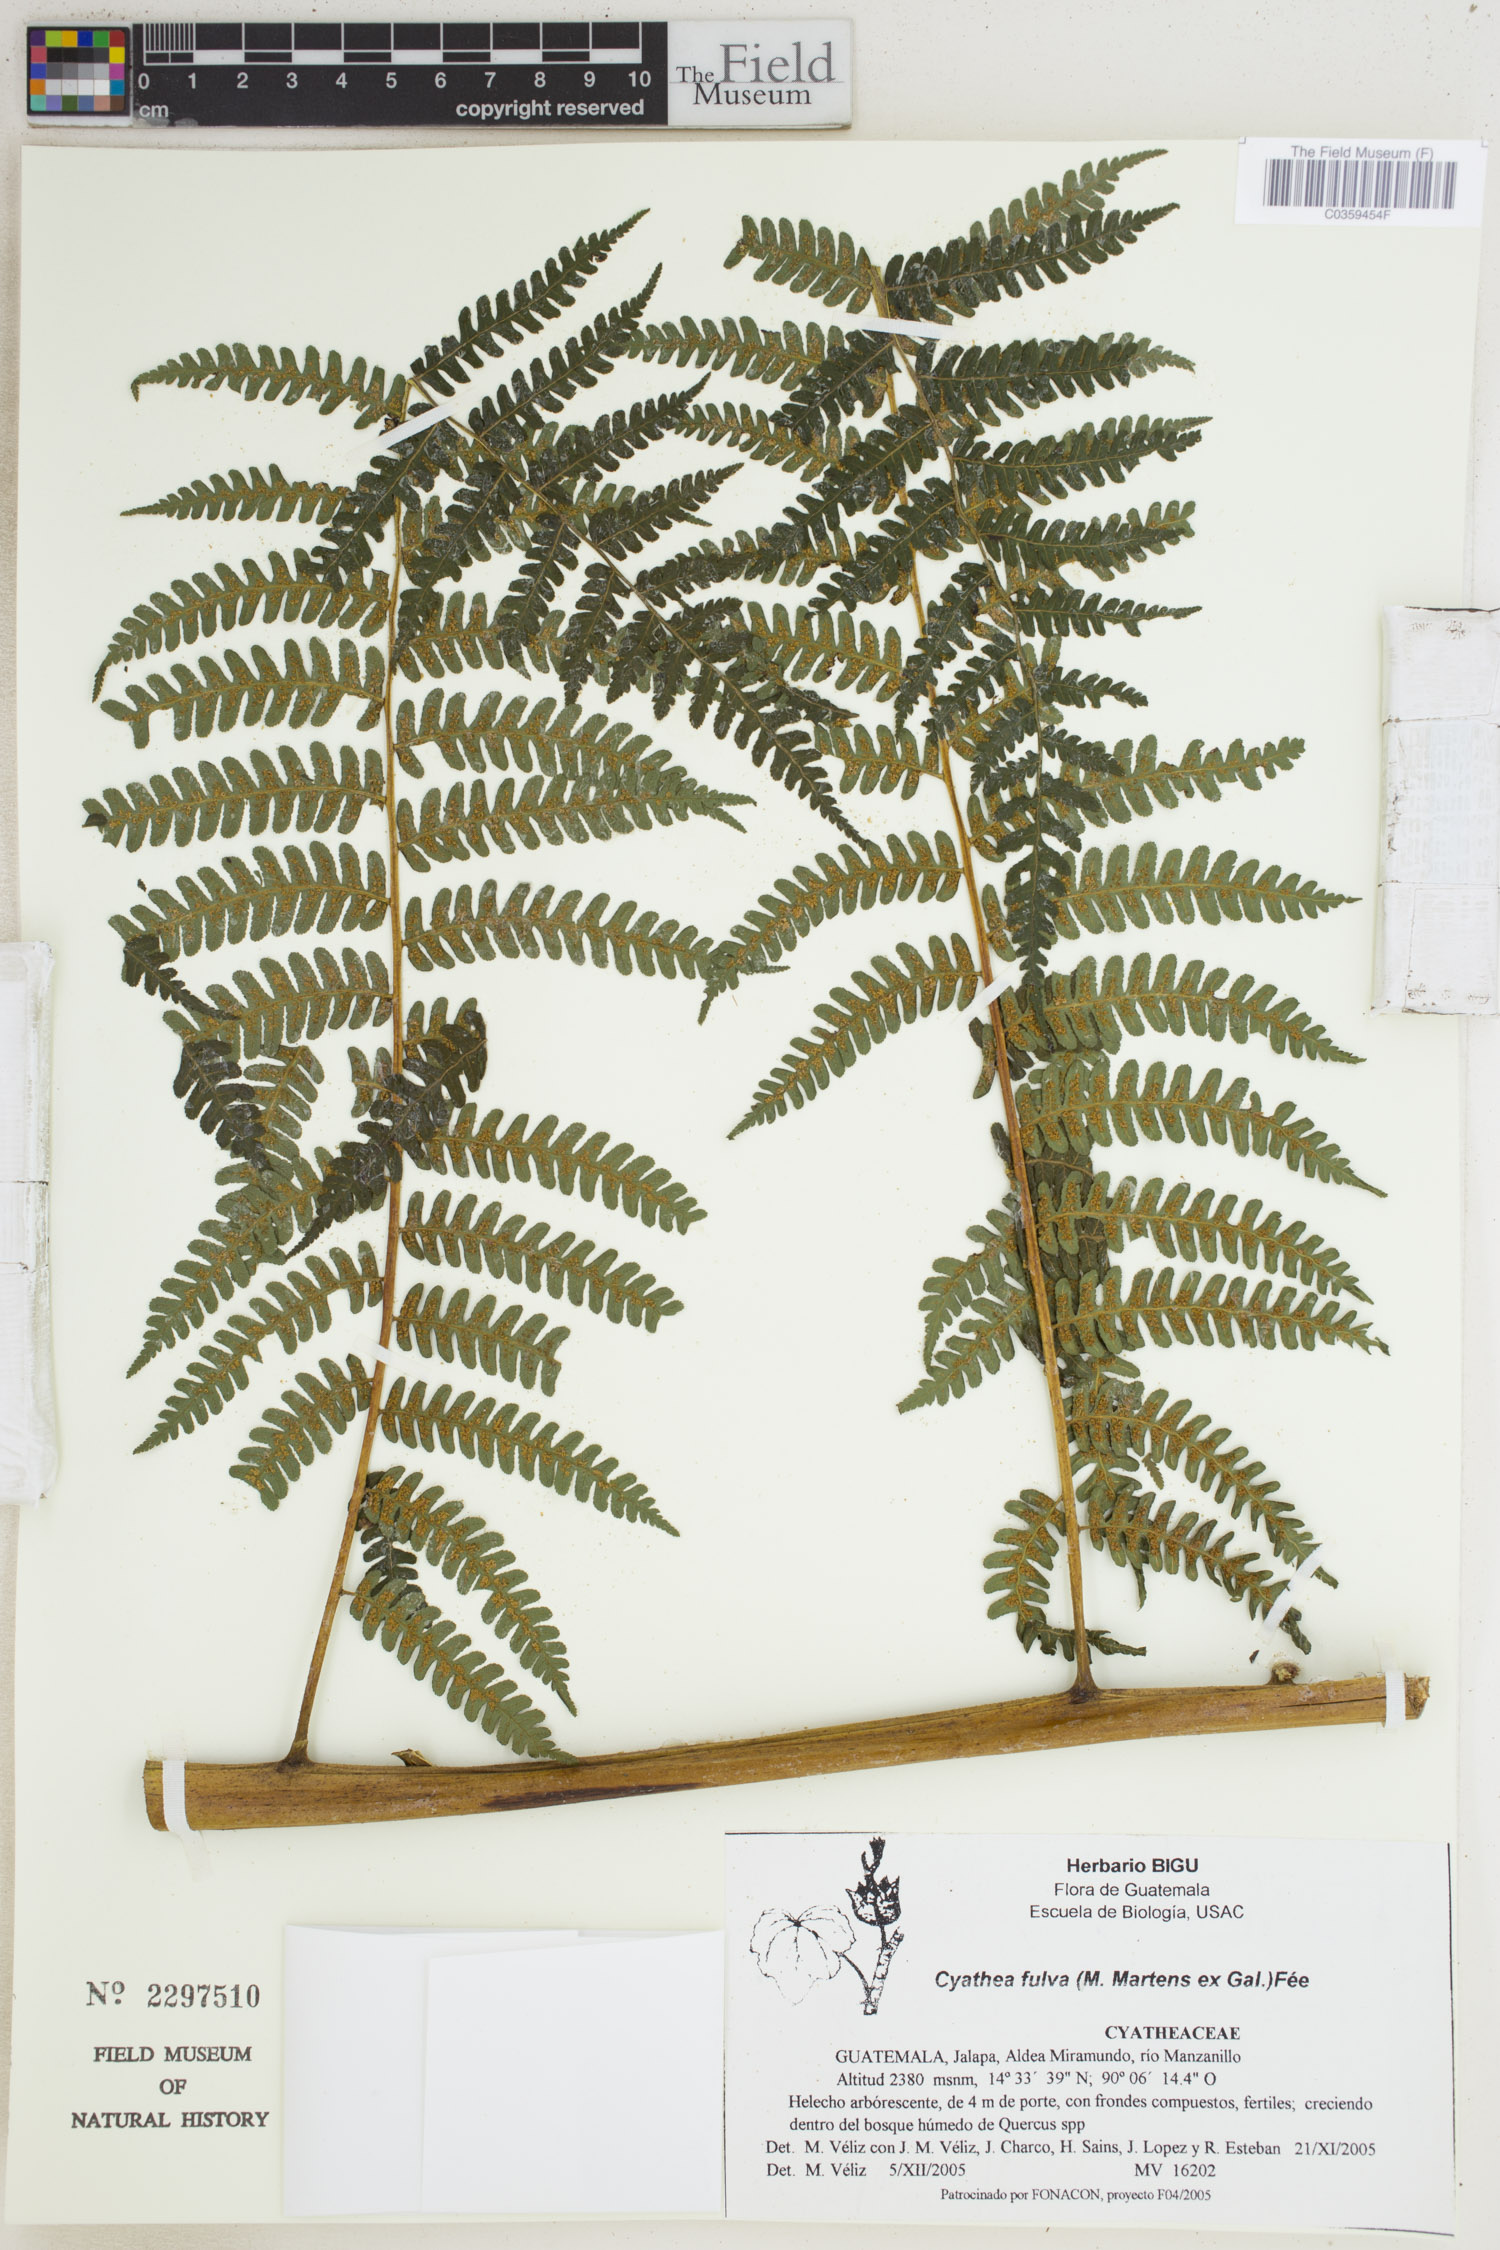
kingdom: Plantae
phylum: Tracheophyta
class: Polypodiopsida
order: Cyatheales
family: Cyatheaceae
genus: Cyathea
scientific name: Cyathea fulva
